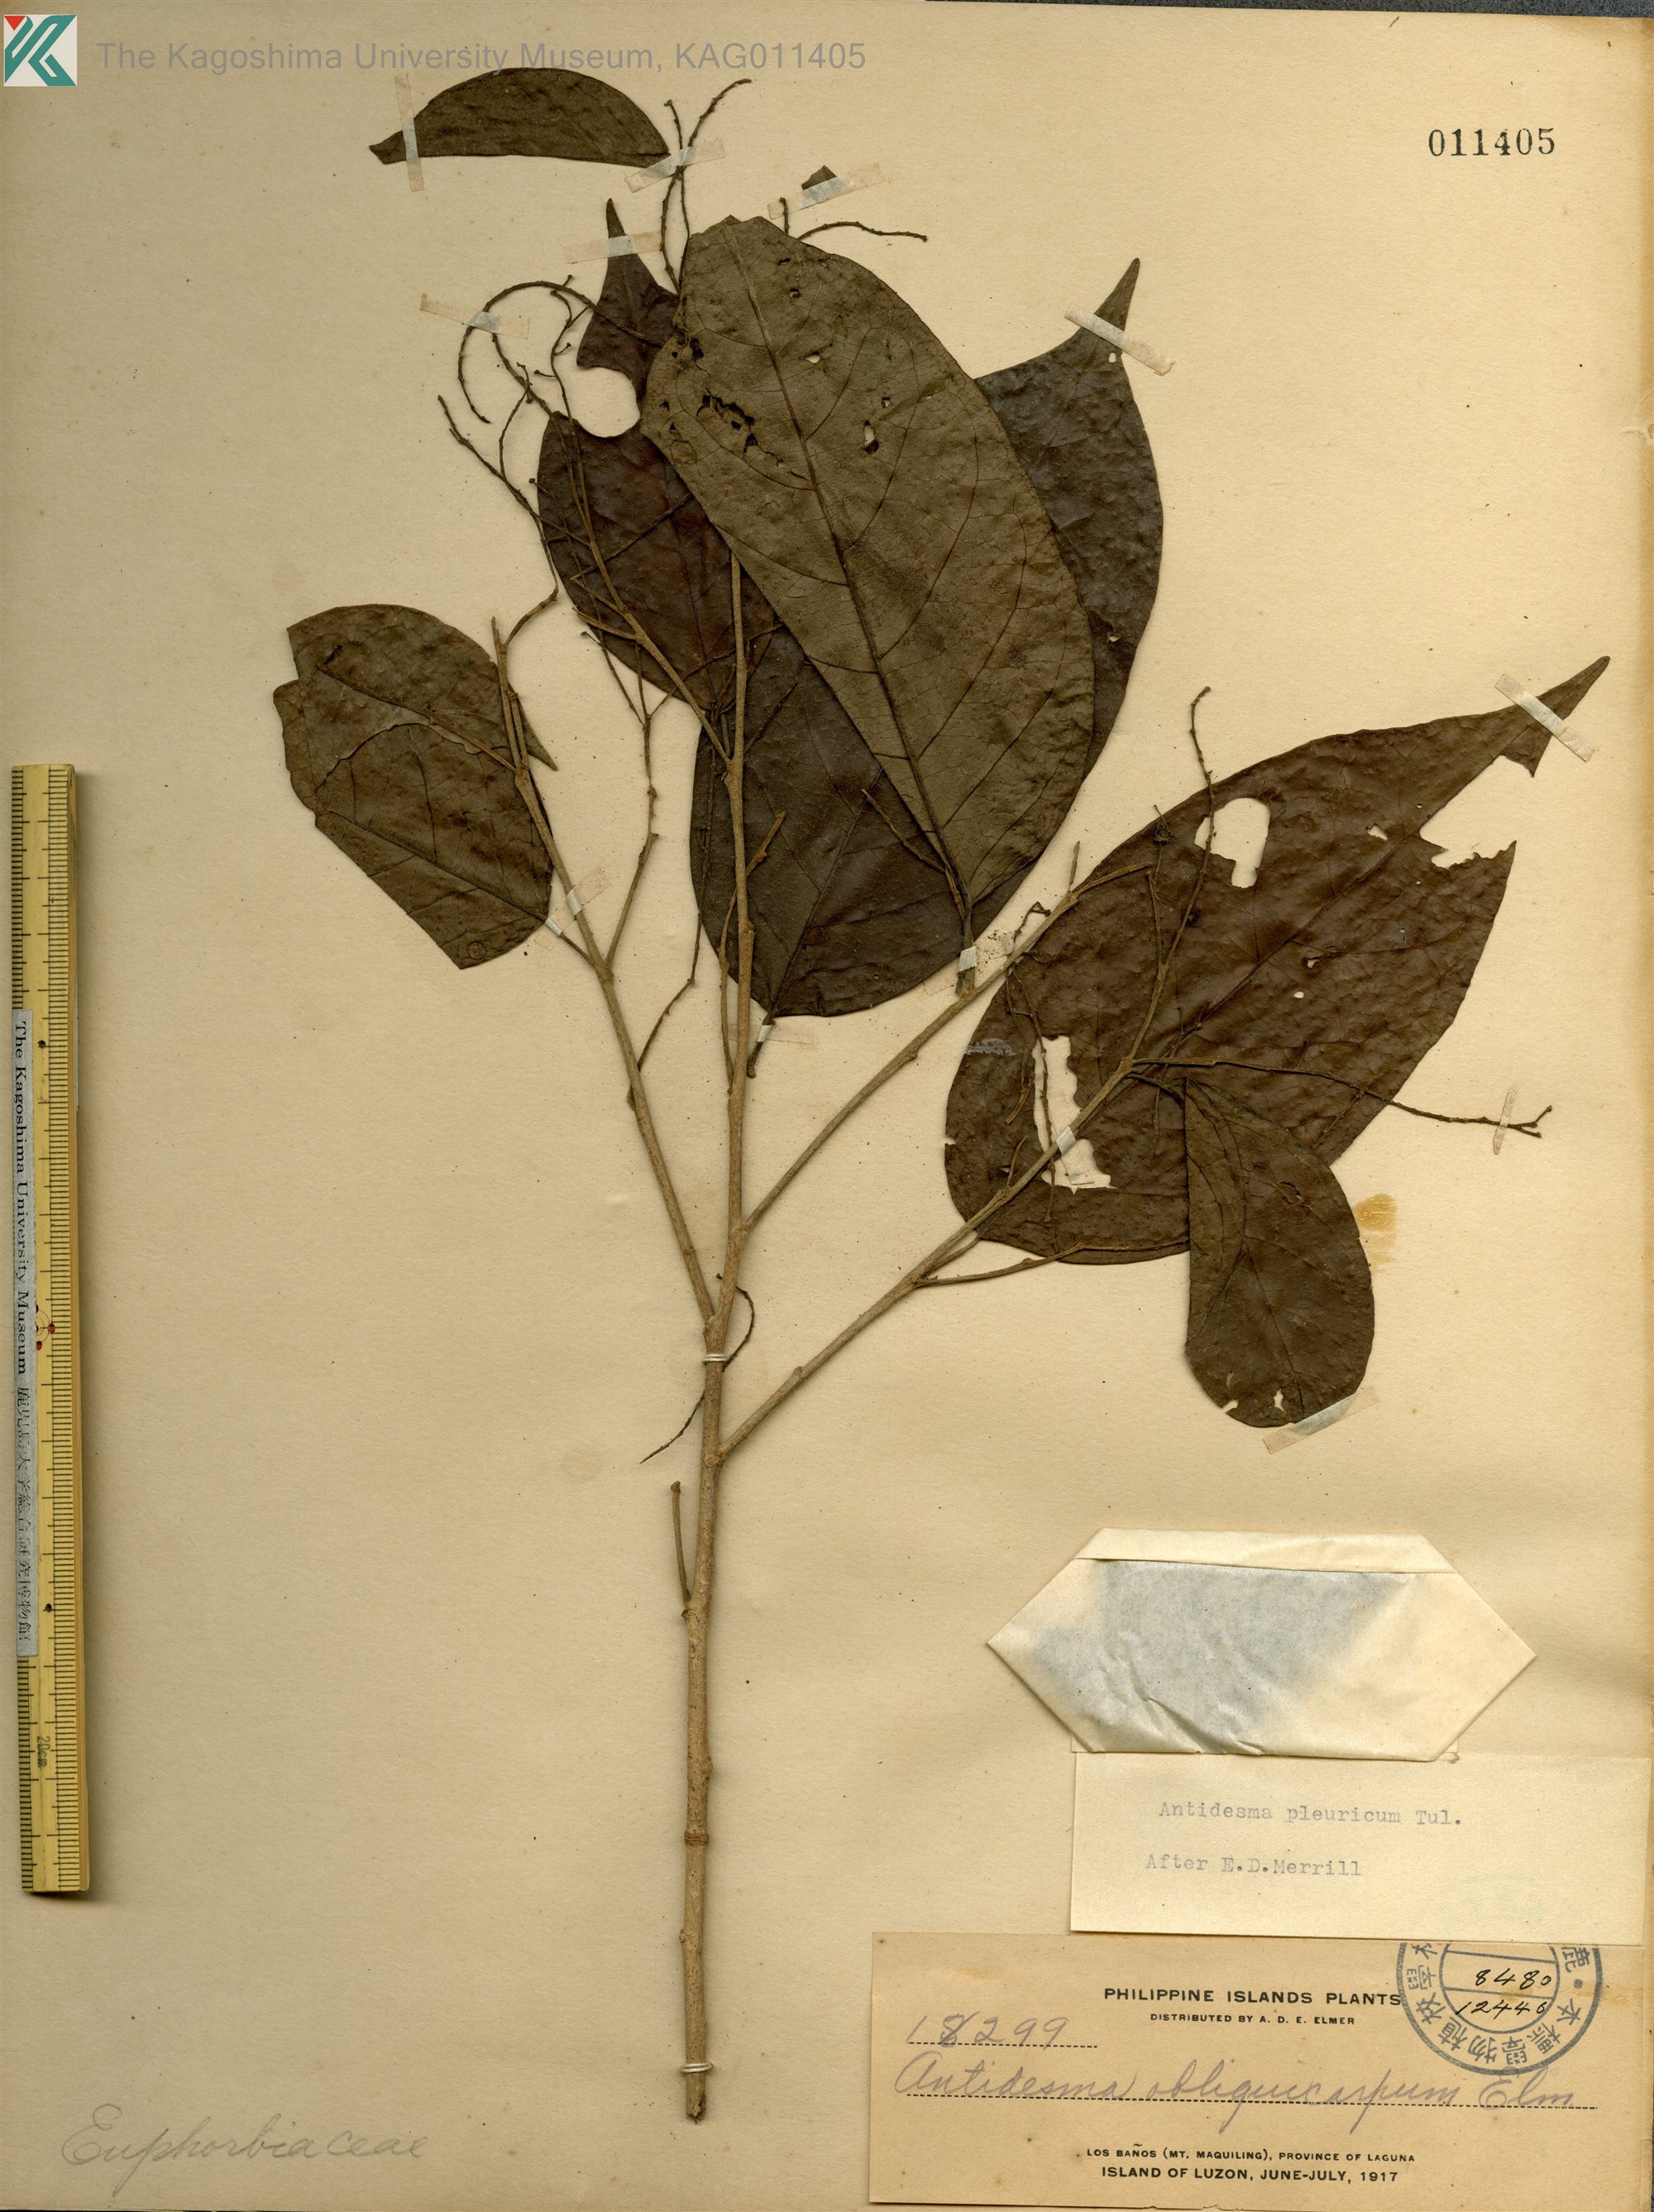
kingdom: Plantae
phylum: Tracheophyta
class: Magnoliopsida
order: Malpighiales
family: Phyllanthaceae
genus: Antidesma
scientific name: Antidesma pleuricum
